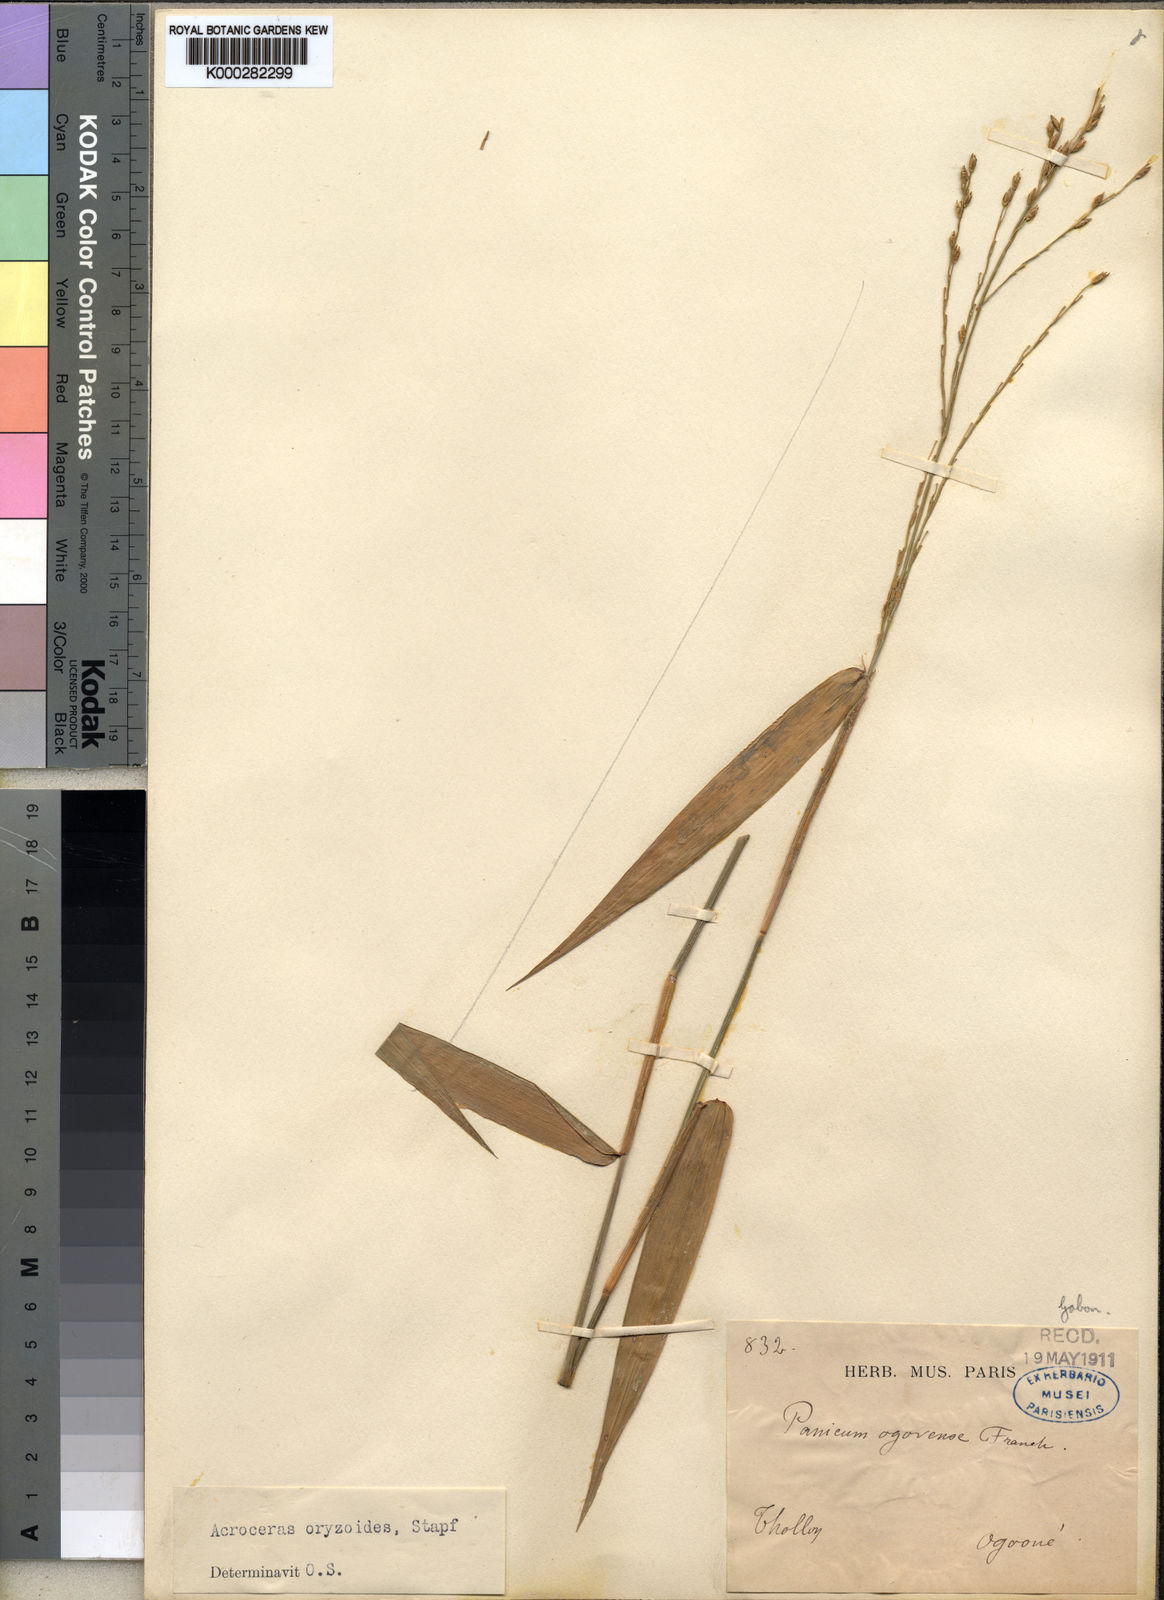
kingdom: Plantae
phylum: Tracheophyta
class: Liliopsida
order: Poales
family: Poaceae
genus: Acroceras
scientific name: Acroceras zizanioides
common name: Oat grass
